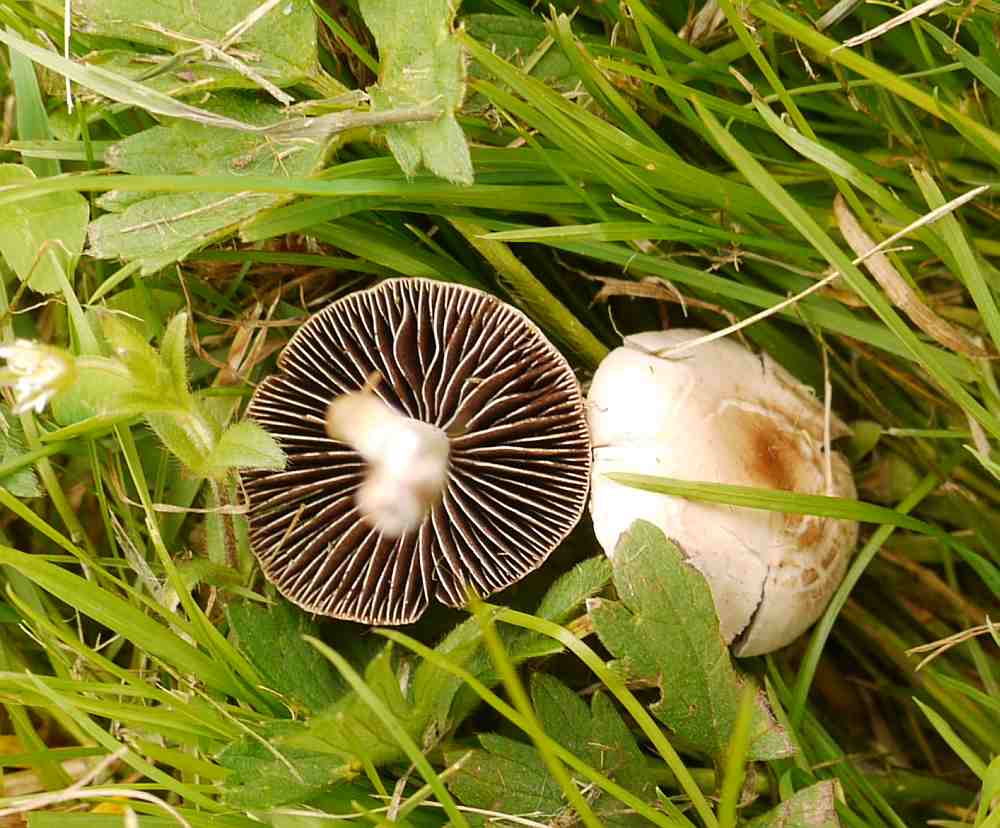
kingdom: Fungi
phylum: Basidiomycota
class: Agaricomycetes
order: Agaricales
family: Bolbitiaceae
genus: Panaeolina
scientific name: Panaeolina foenisecii
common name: høslætsvamp
